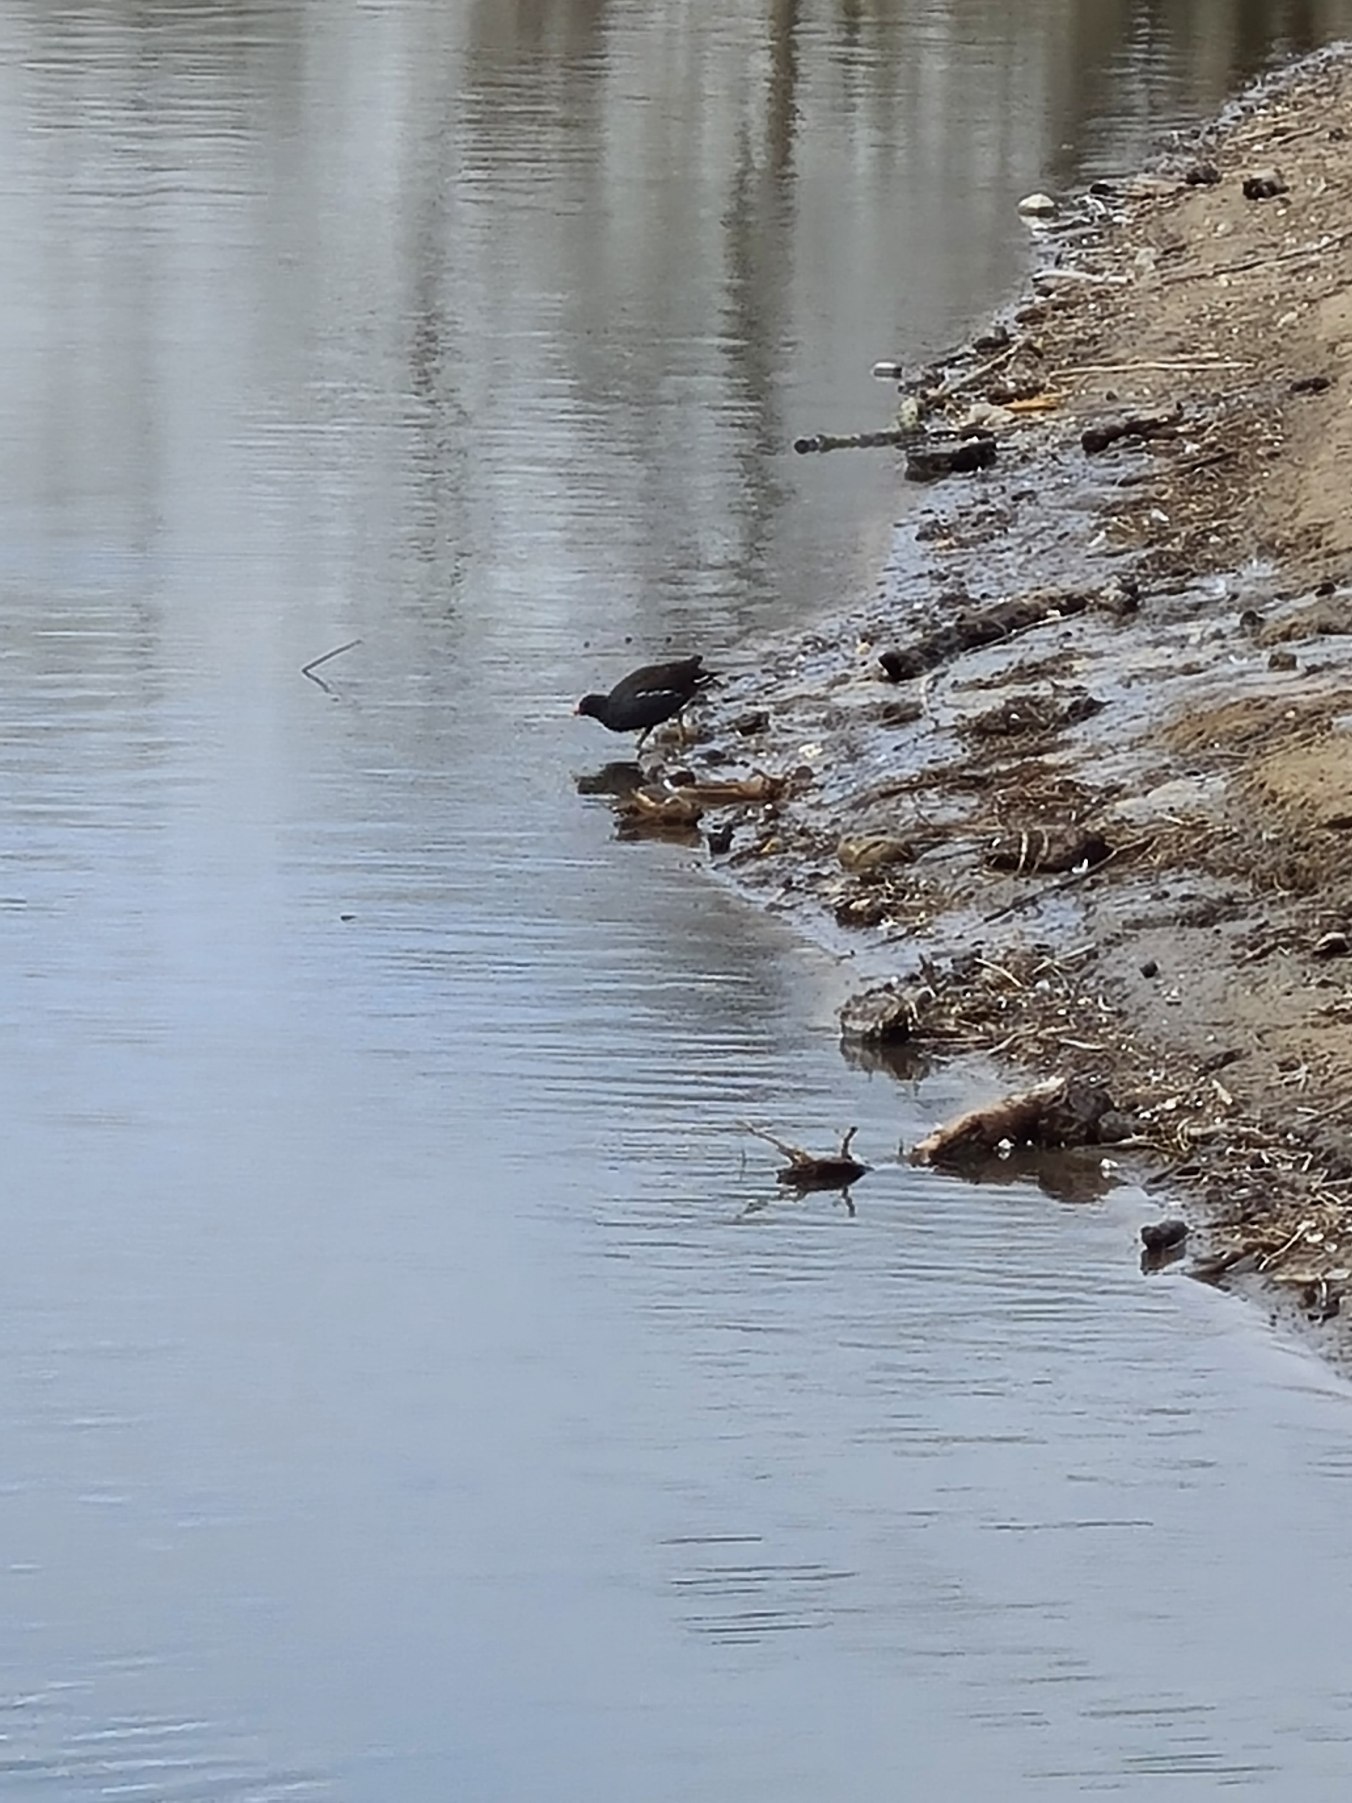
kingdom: Animalia
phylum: Chordata
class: Aves
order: Gruiformes
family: Rallidae
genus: Gallinula
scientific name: Gallinula chloropus
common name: Grønbenet rørhøne
